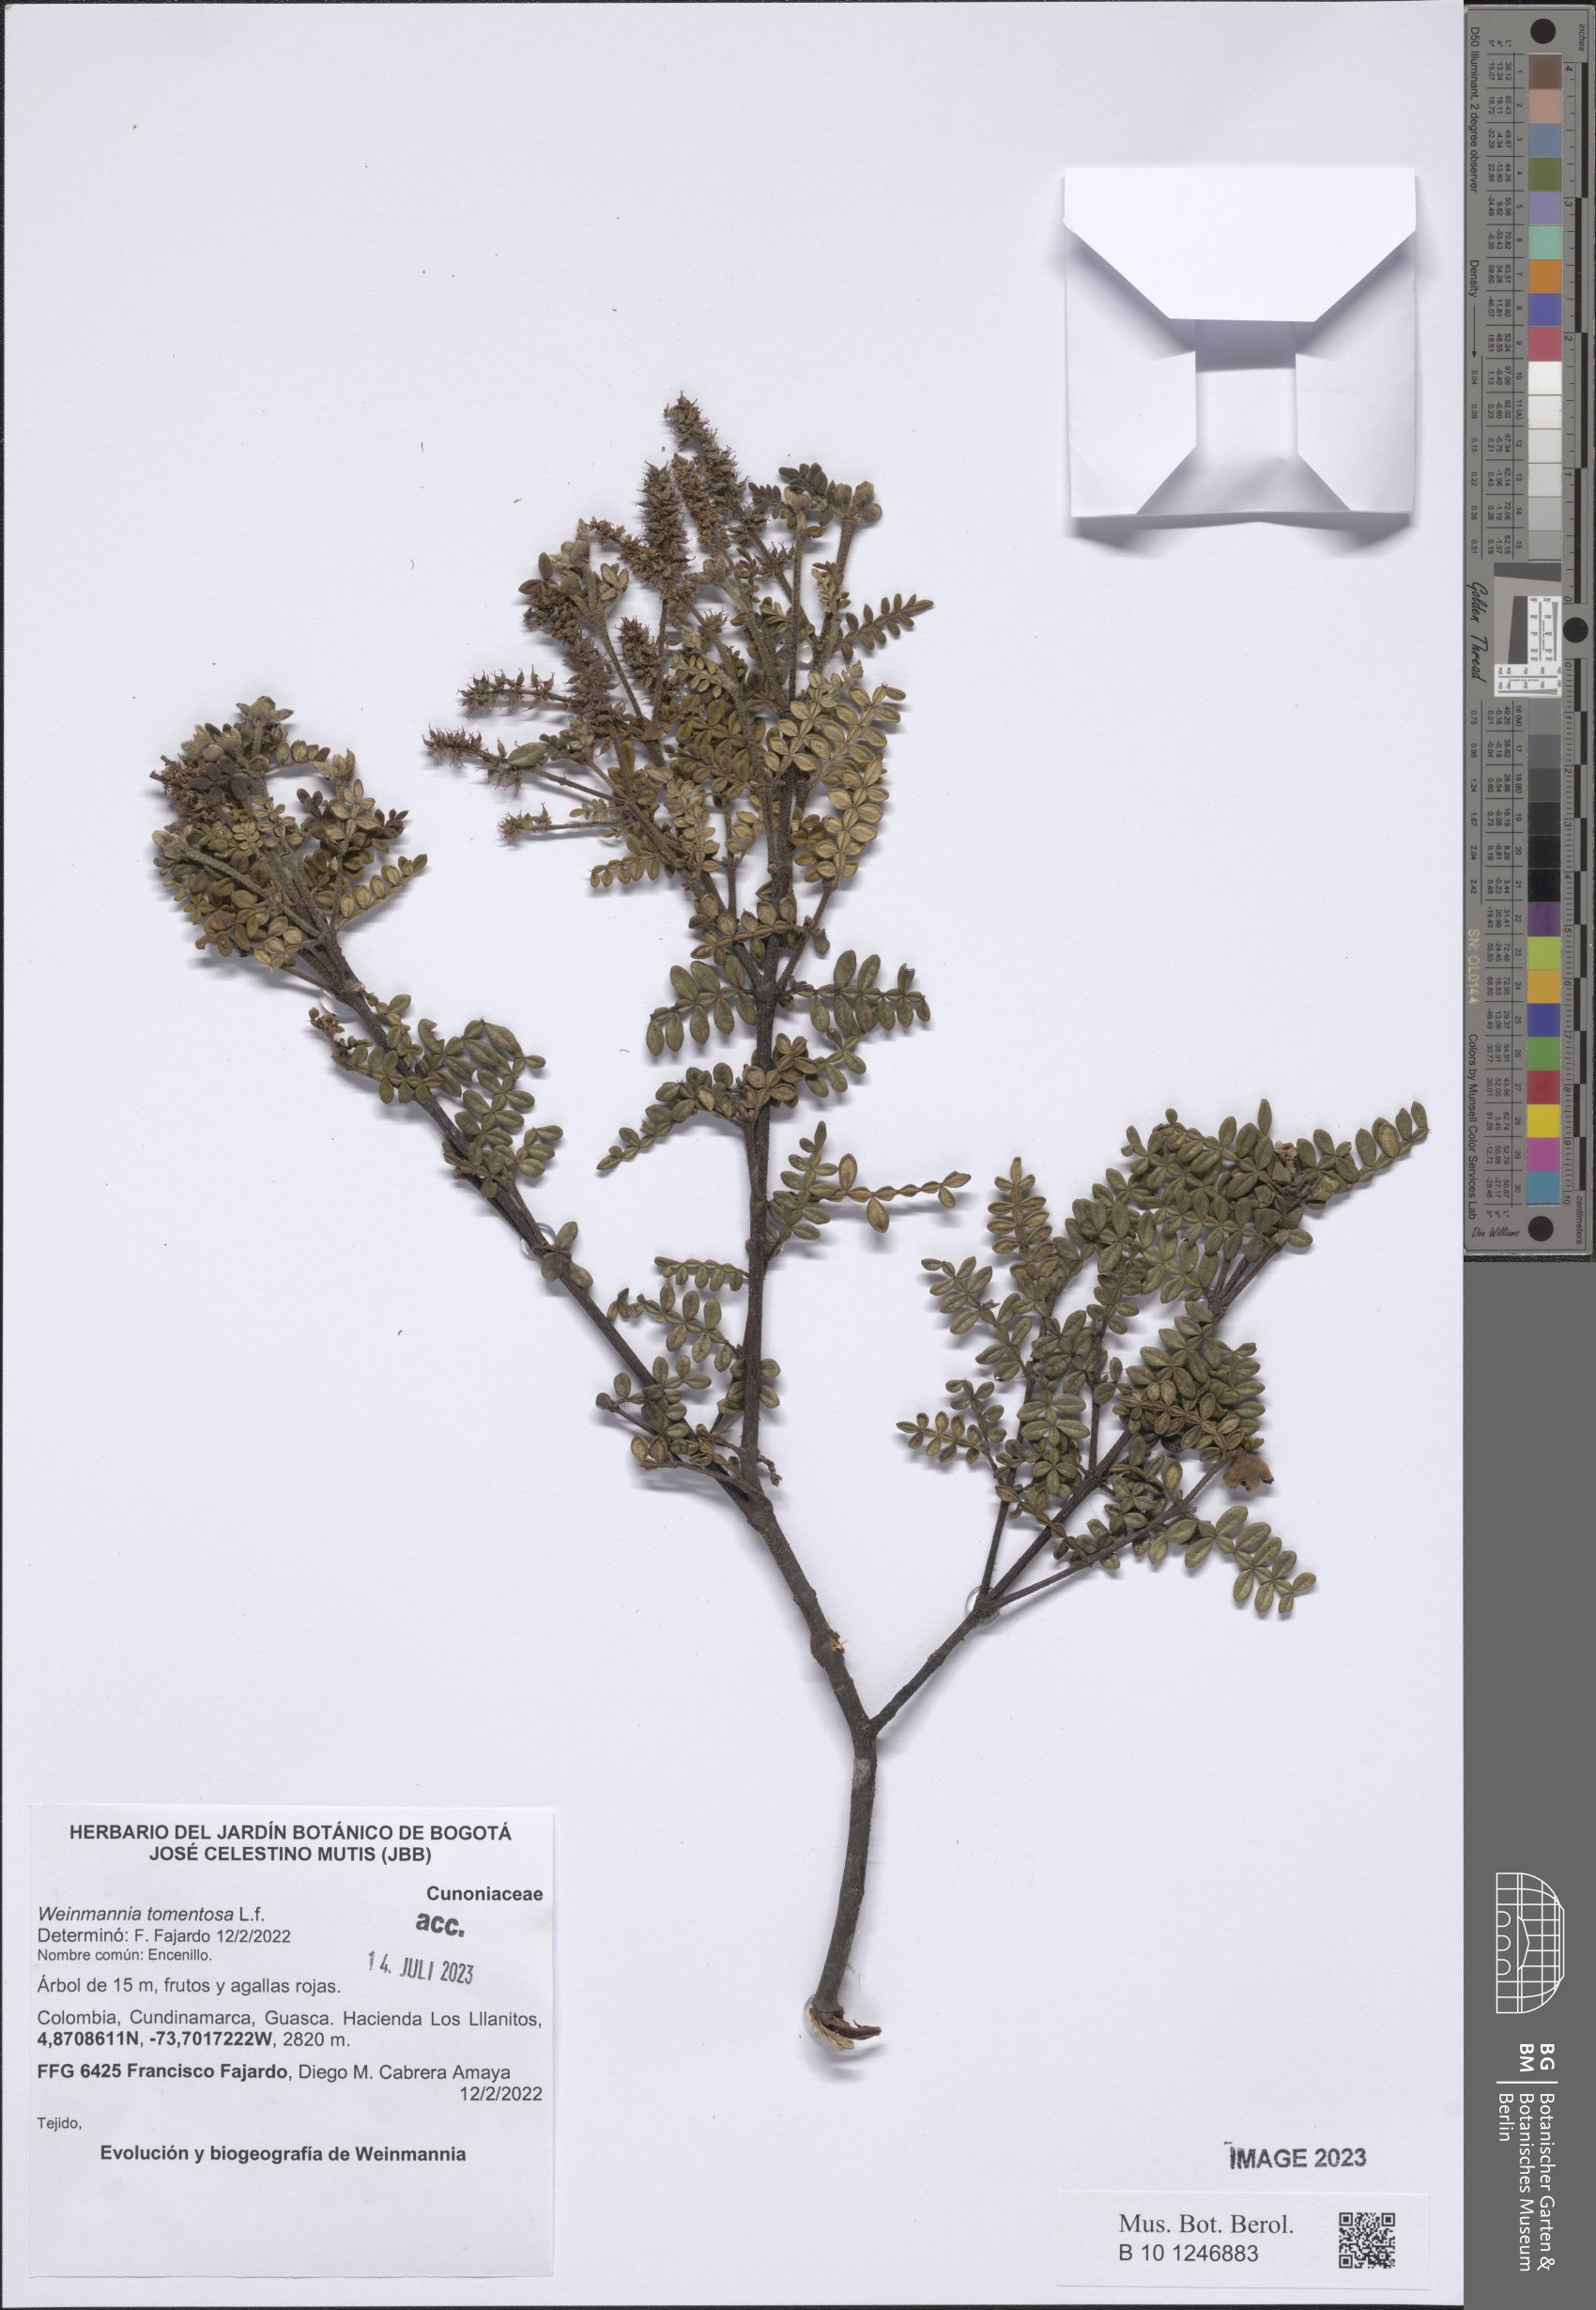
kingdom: Plantae
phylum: Tracheophyta
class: Magnoliopsida
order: Oxalidales
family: Cunoniaceae
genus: Weinmannia
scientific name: Weinmannia tomentosa
